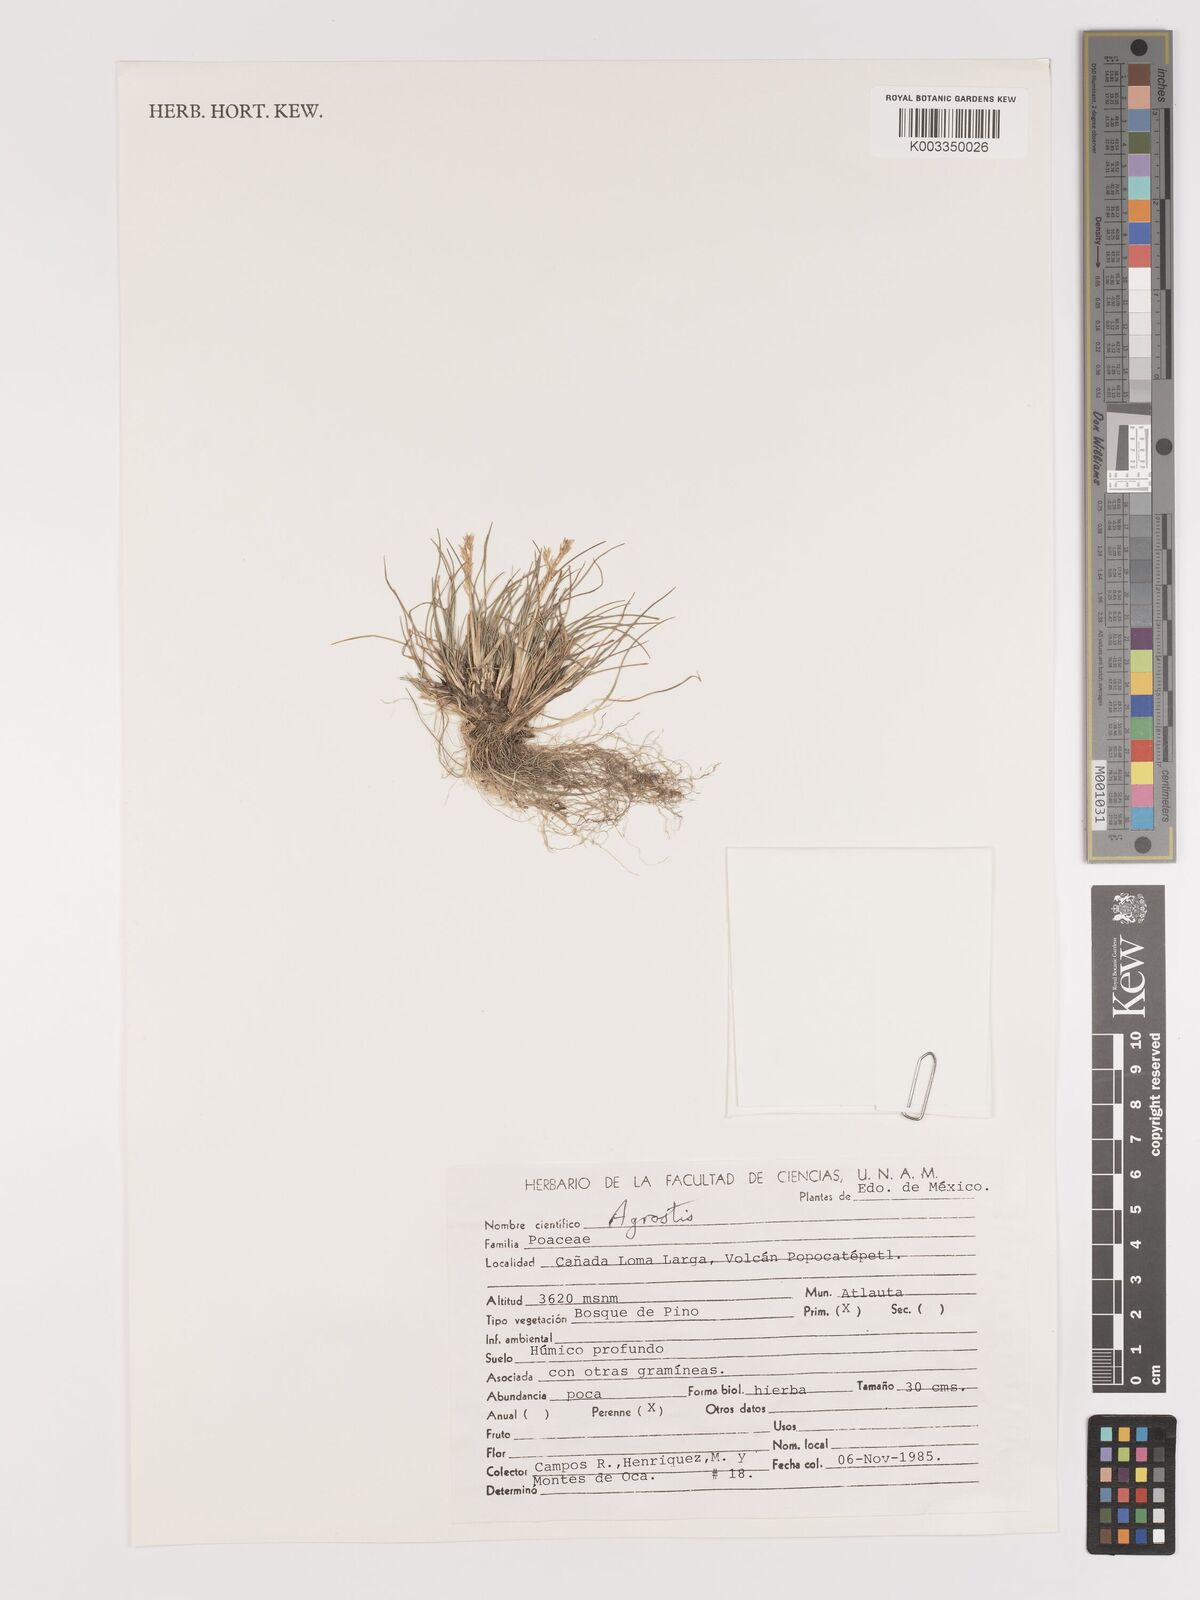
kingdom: Plantae
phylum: Tracheophyta
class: Liliopsida
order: Poales
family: Poaceae
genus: Agrostis
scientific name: Agrostis
